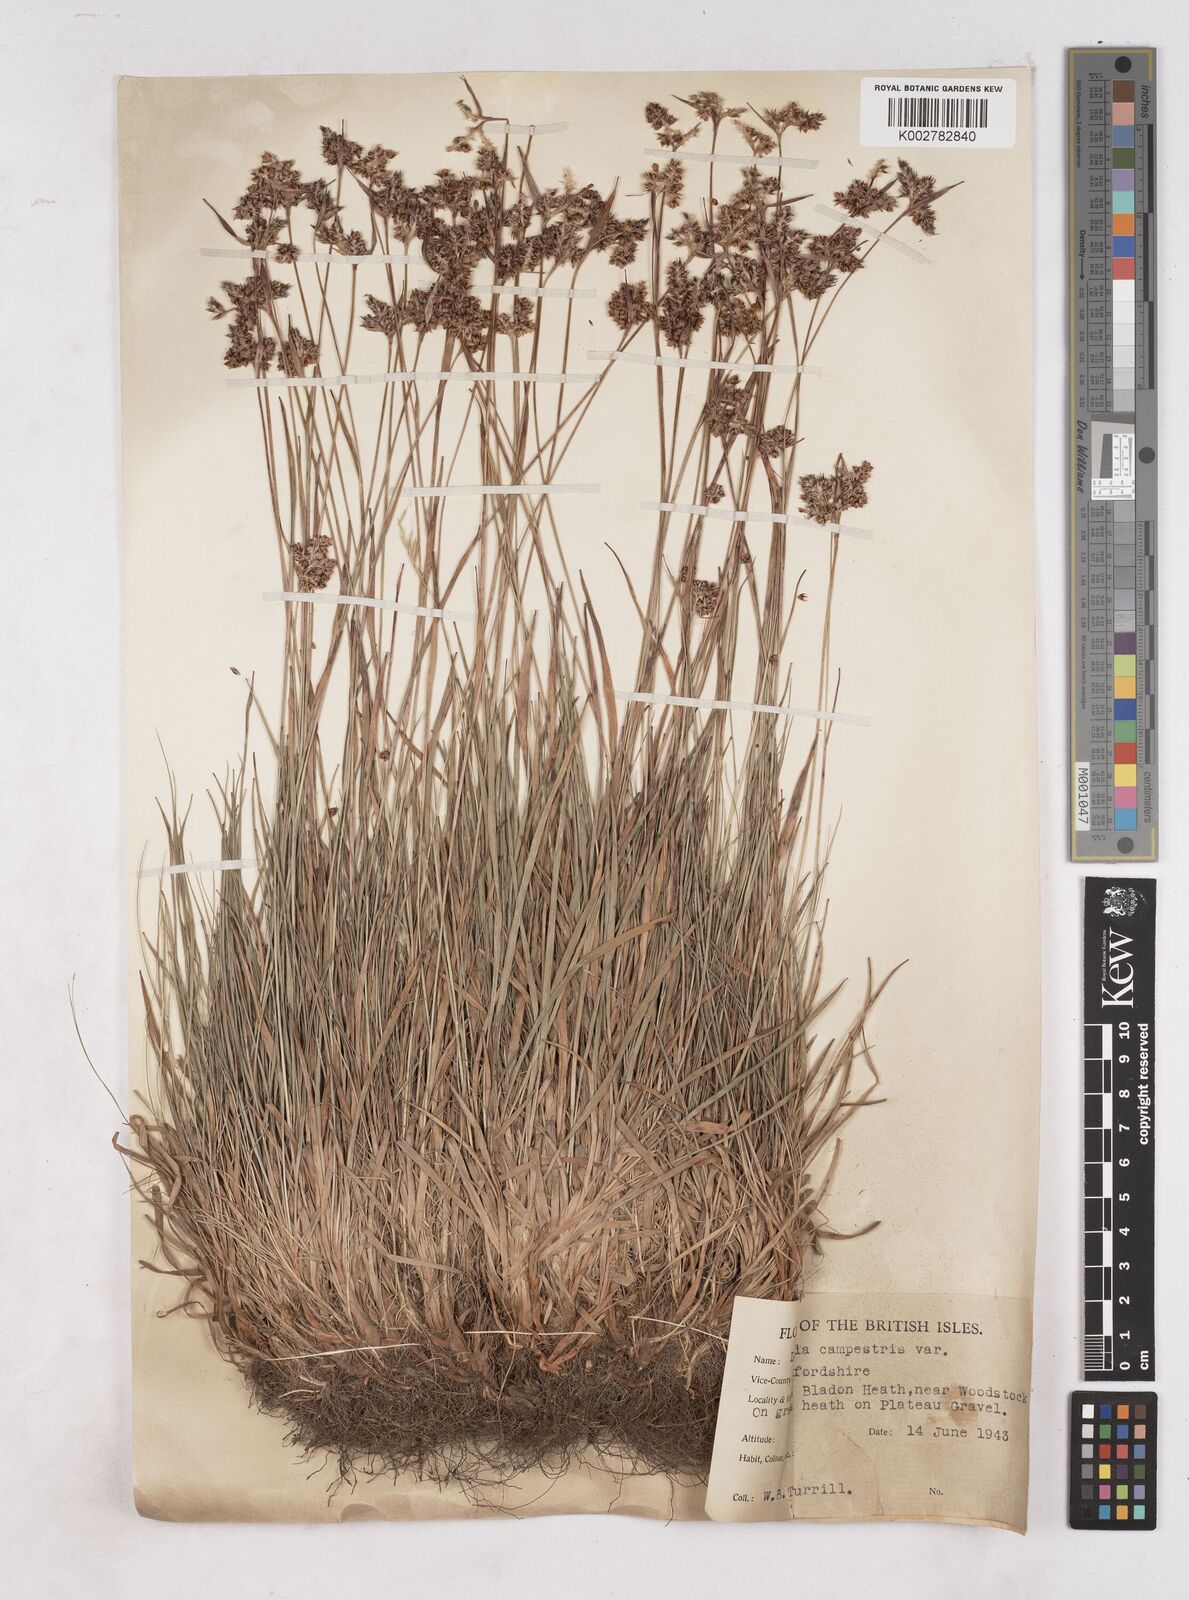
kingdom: Plantae
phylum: Tracheophyta
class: Liliopsida
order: Poales
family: Juncaceae
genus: Luzula
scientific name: Luzula campestris
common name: Field wood-rush
